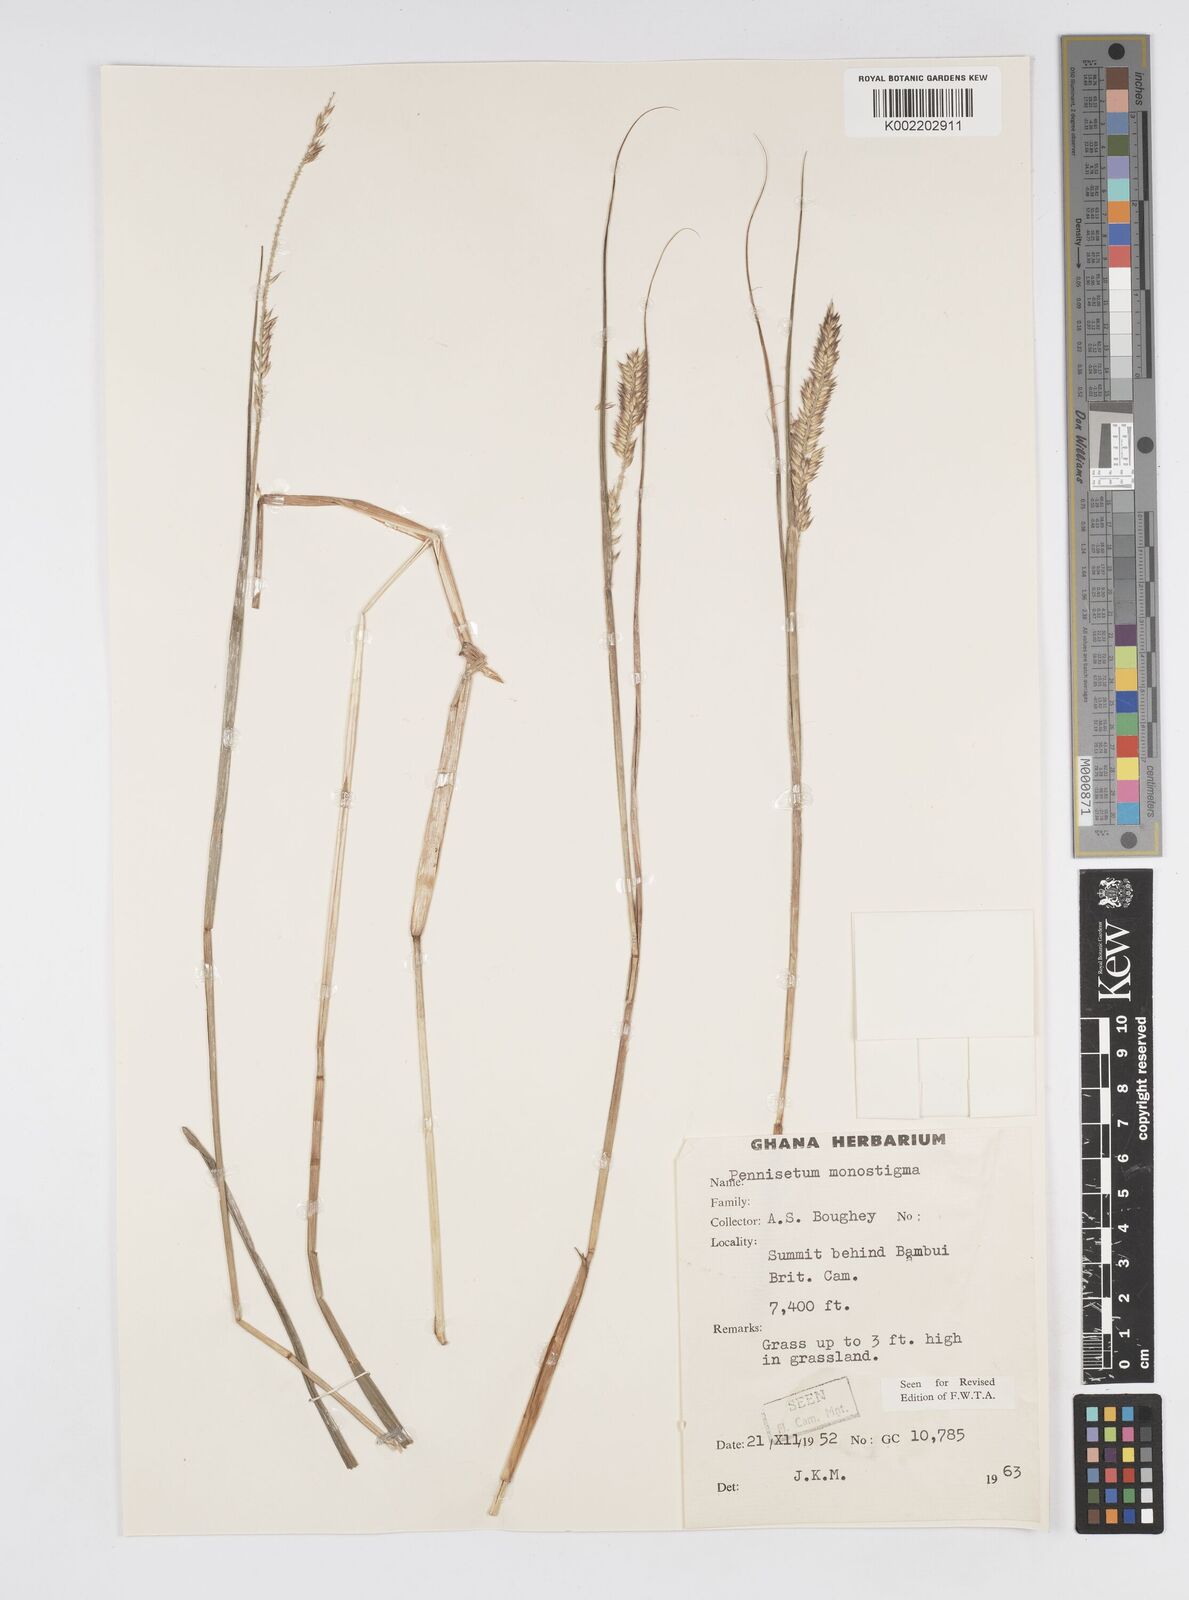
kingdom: Plantae
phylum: Tracheophyta
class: Liliopsida
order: Poales
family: Poaceae
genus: Cenchrus
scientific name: Cenchrus monostigma
